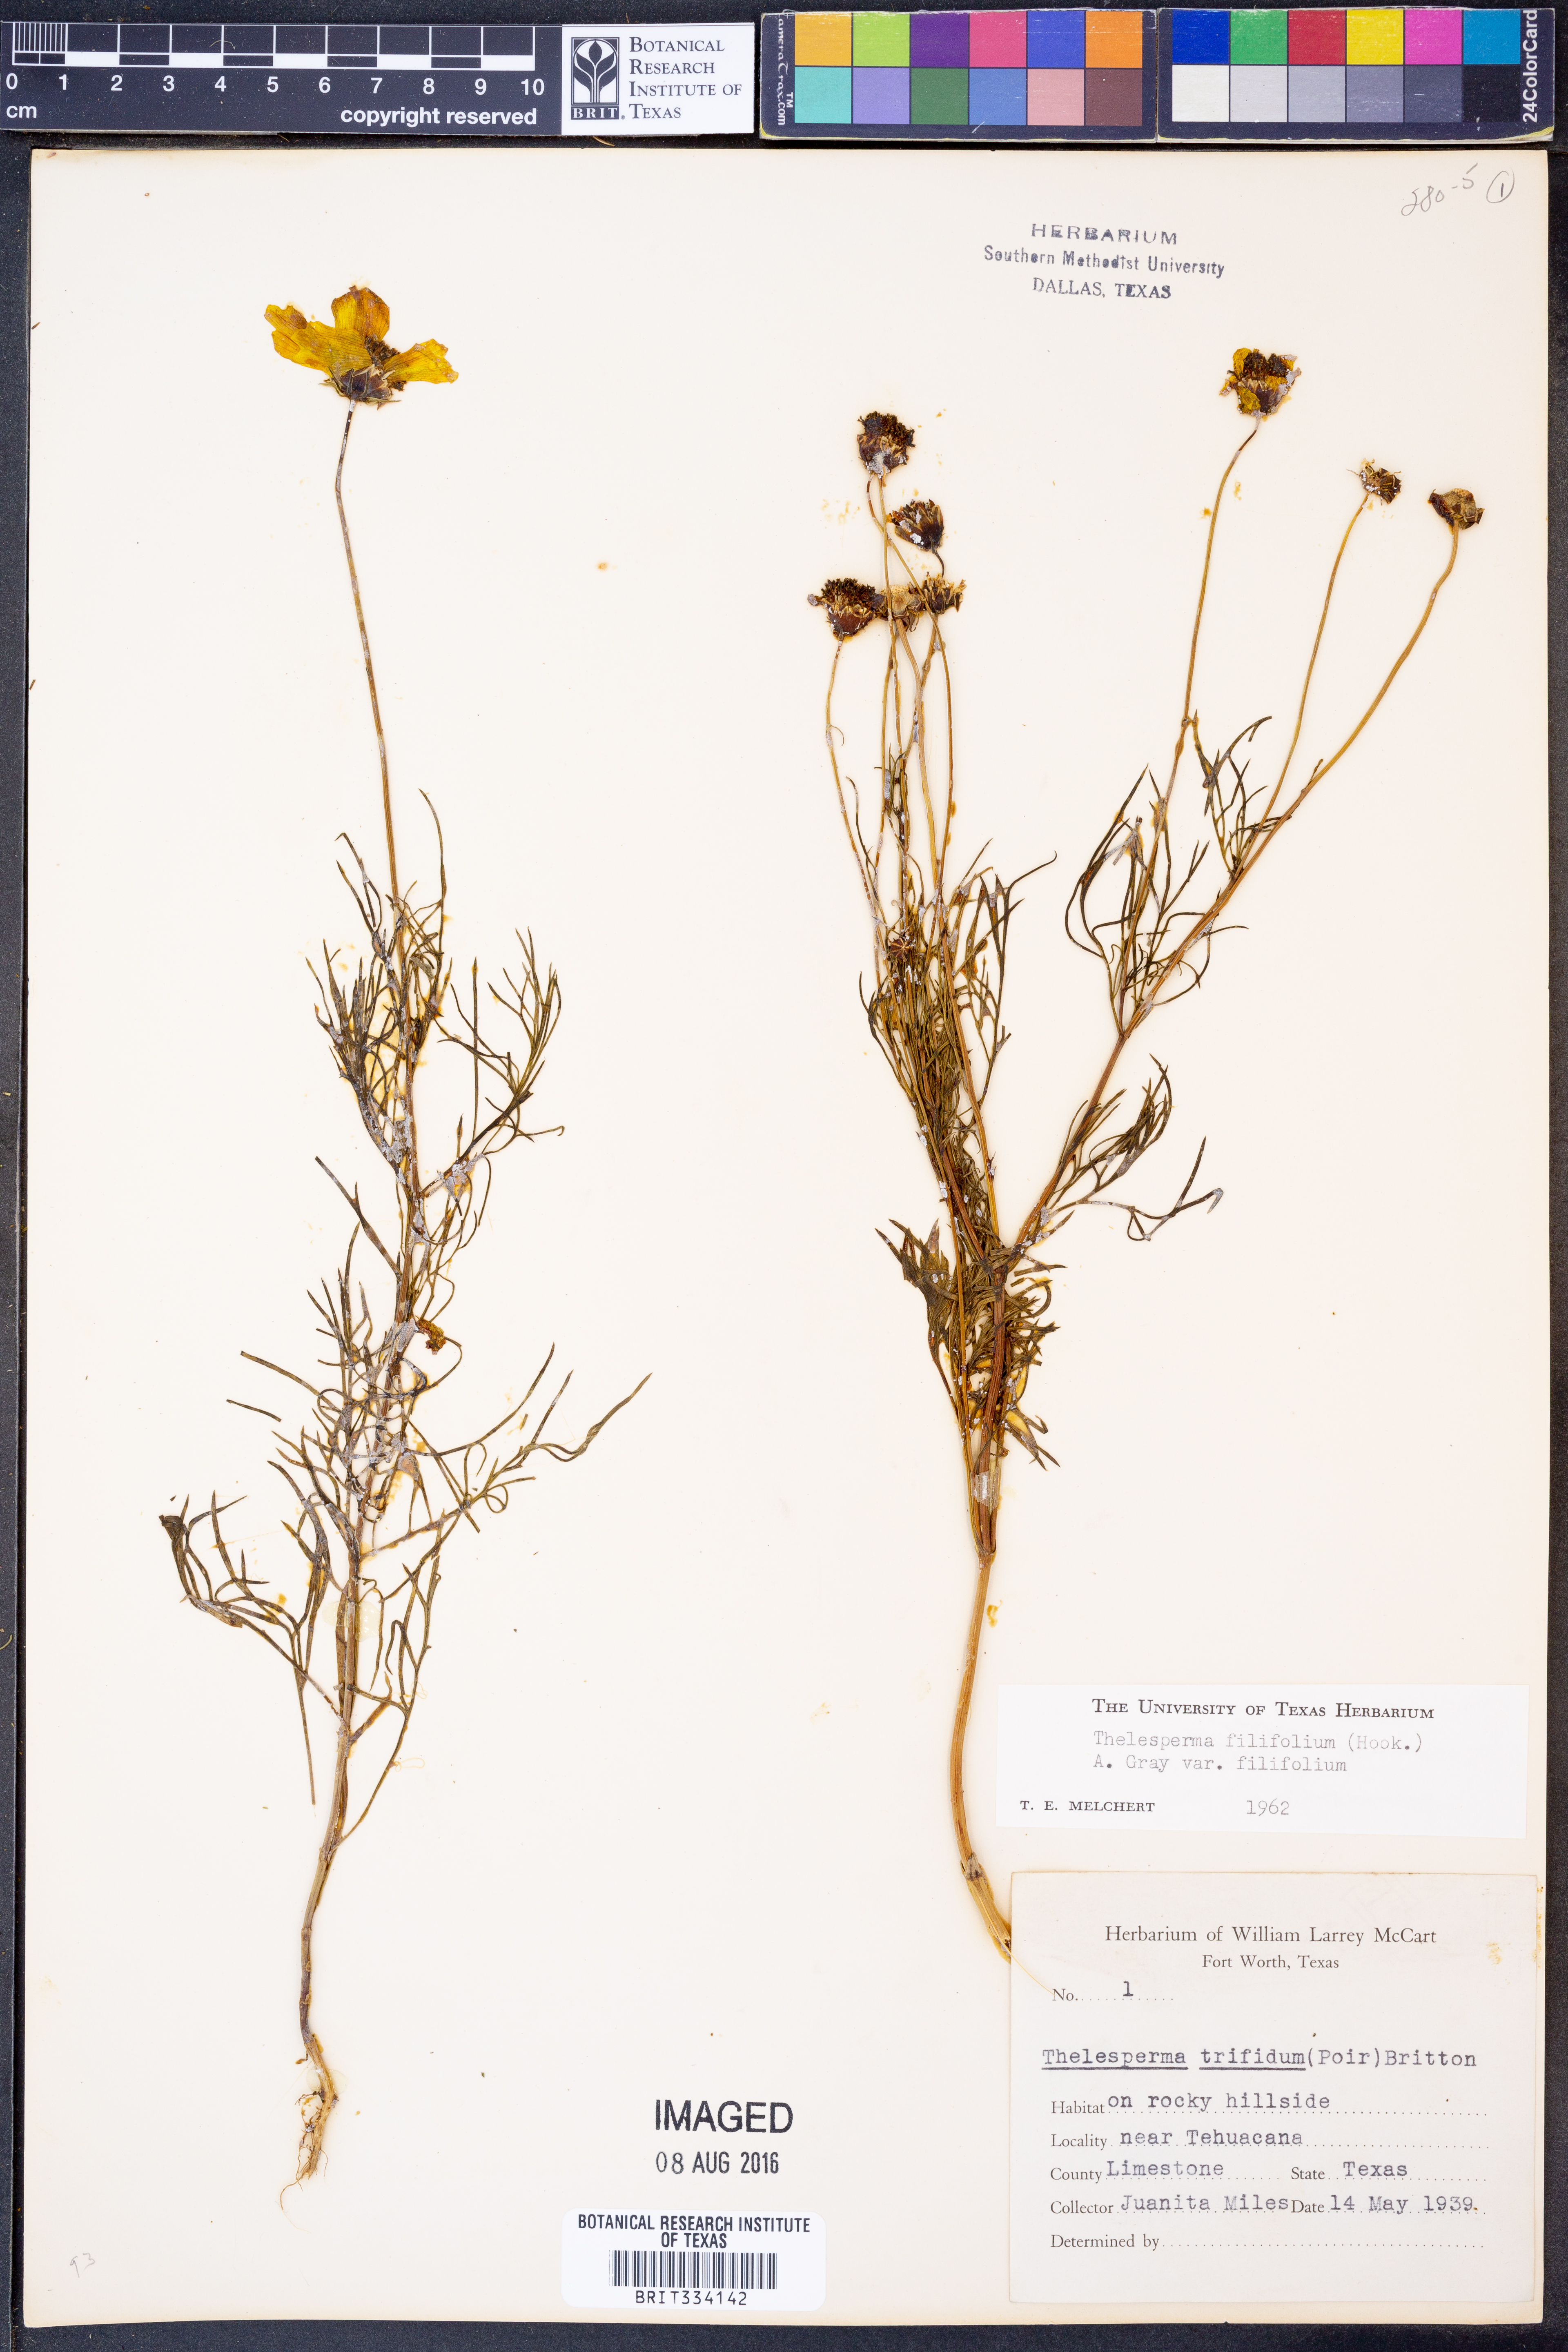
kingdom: Plantae
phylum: Tracheophyta
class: Magnoliopsida
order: Asterales
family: Asteraceae
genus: Thelesperma
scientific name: Thelesperma filifolium
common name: Stiff greenthread
